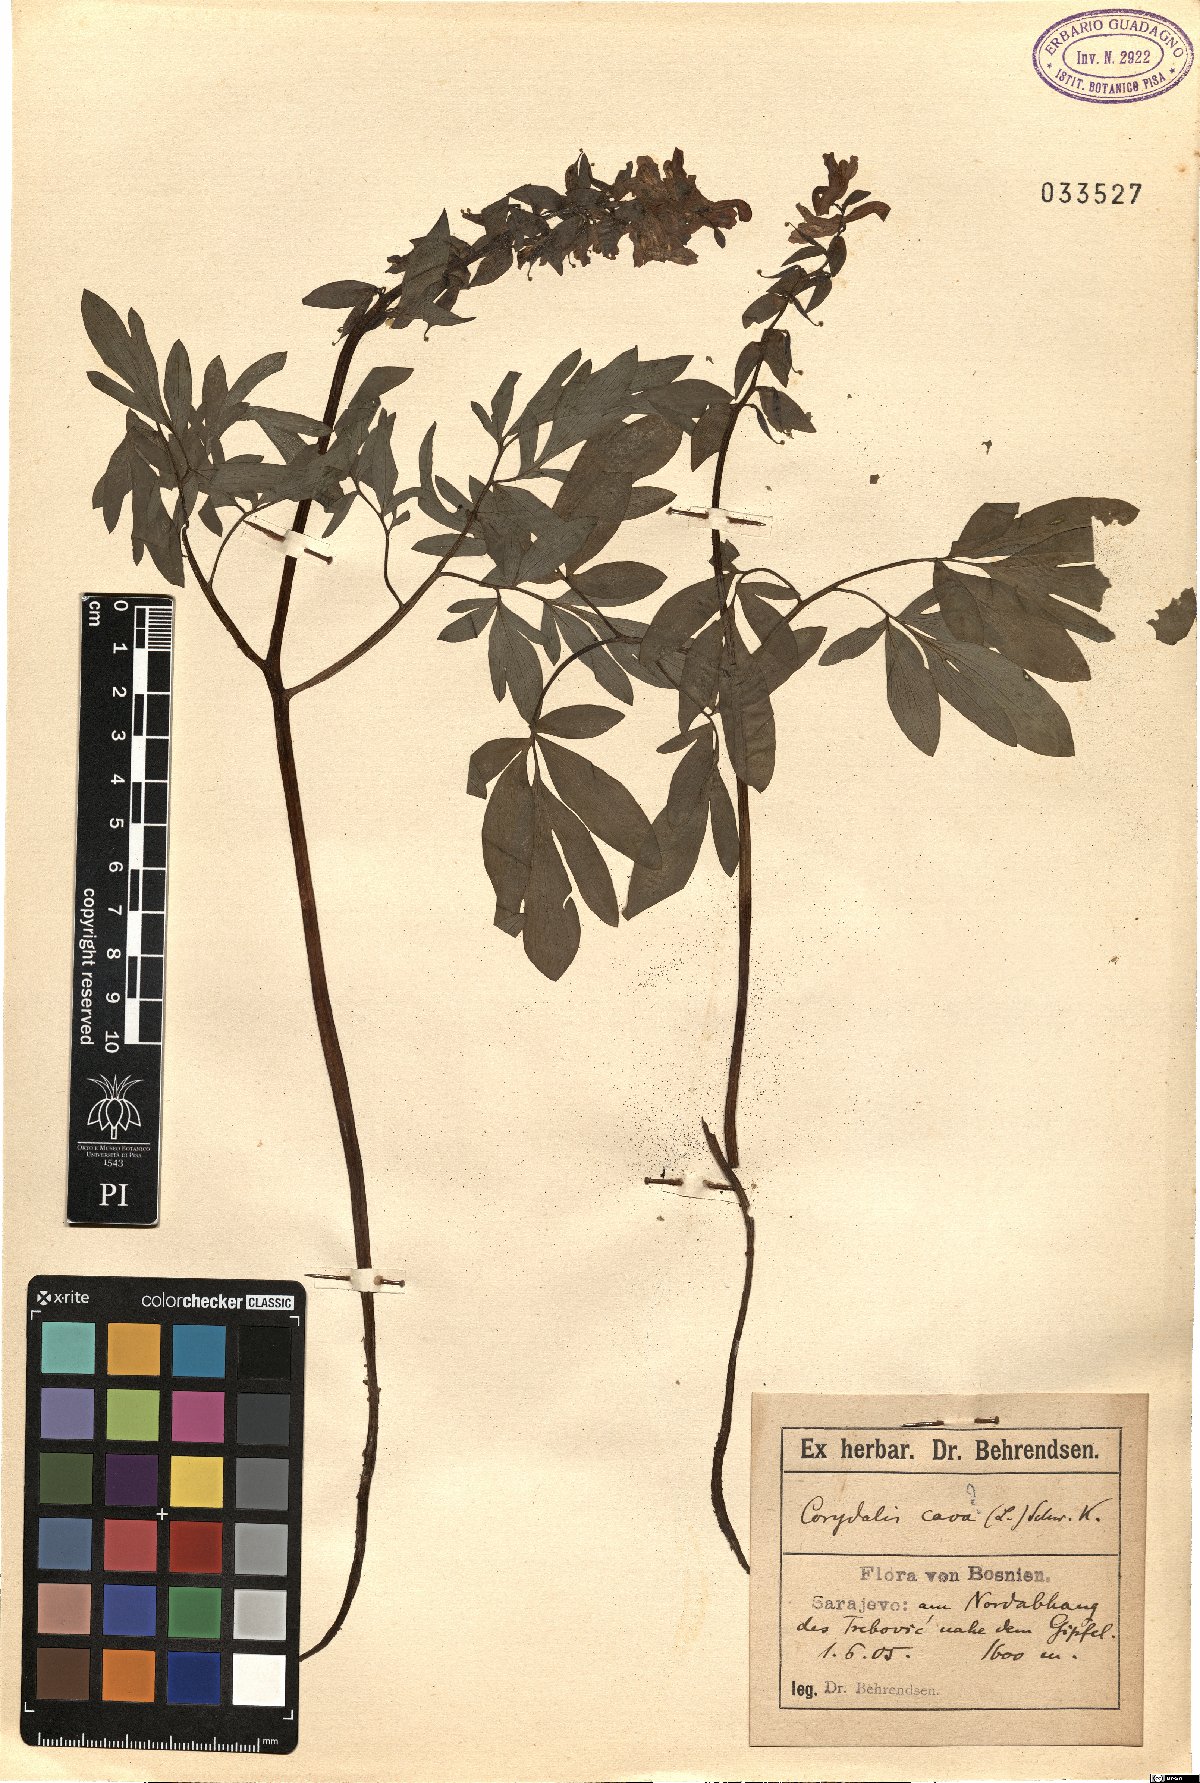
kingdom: Plantae
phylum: Tracheophyta
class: Magnoliopsida
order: Ranunculales
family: Papaveraceae
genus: Corydalis
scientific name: Corydalis cava
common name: Hollowroot
